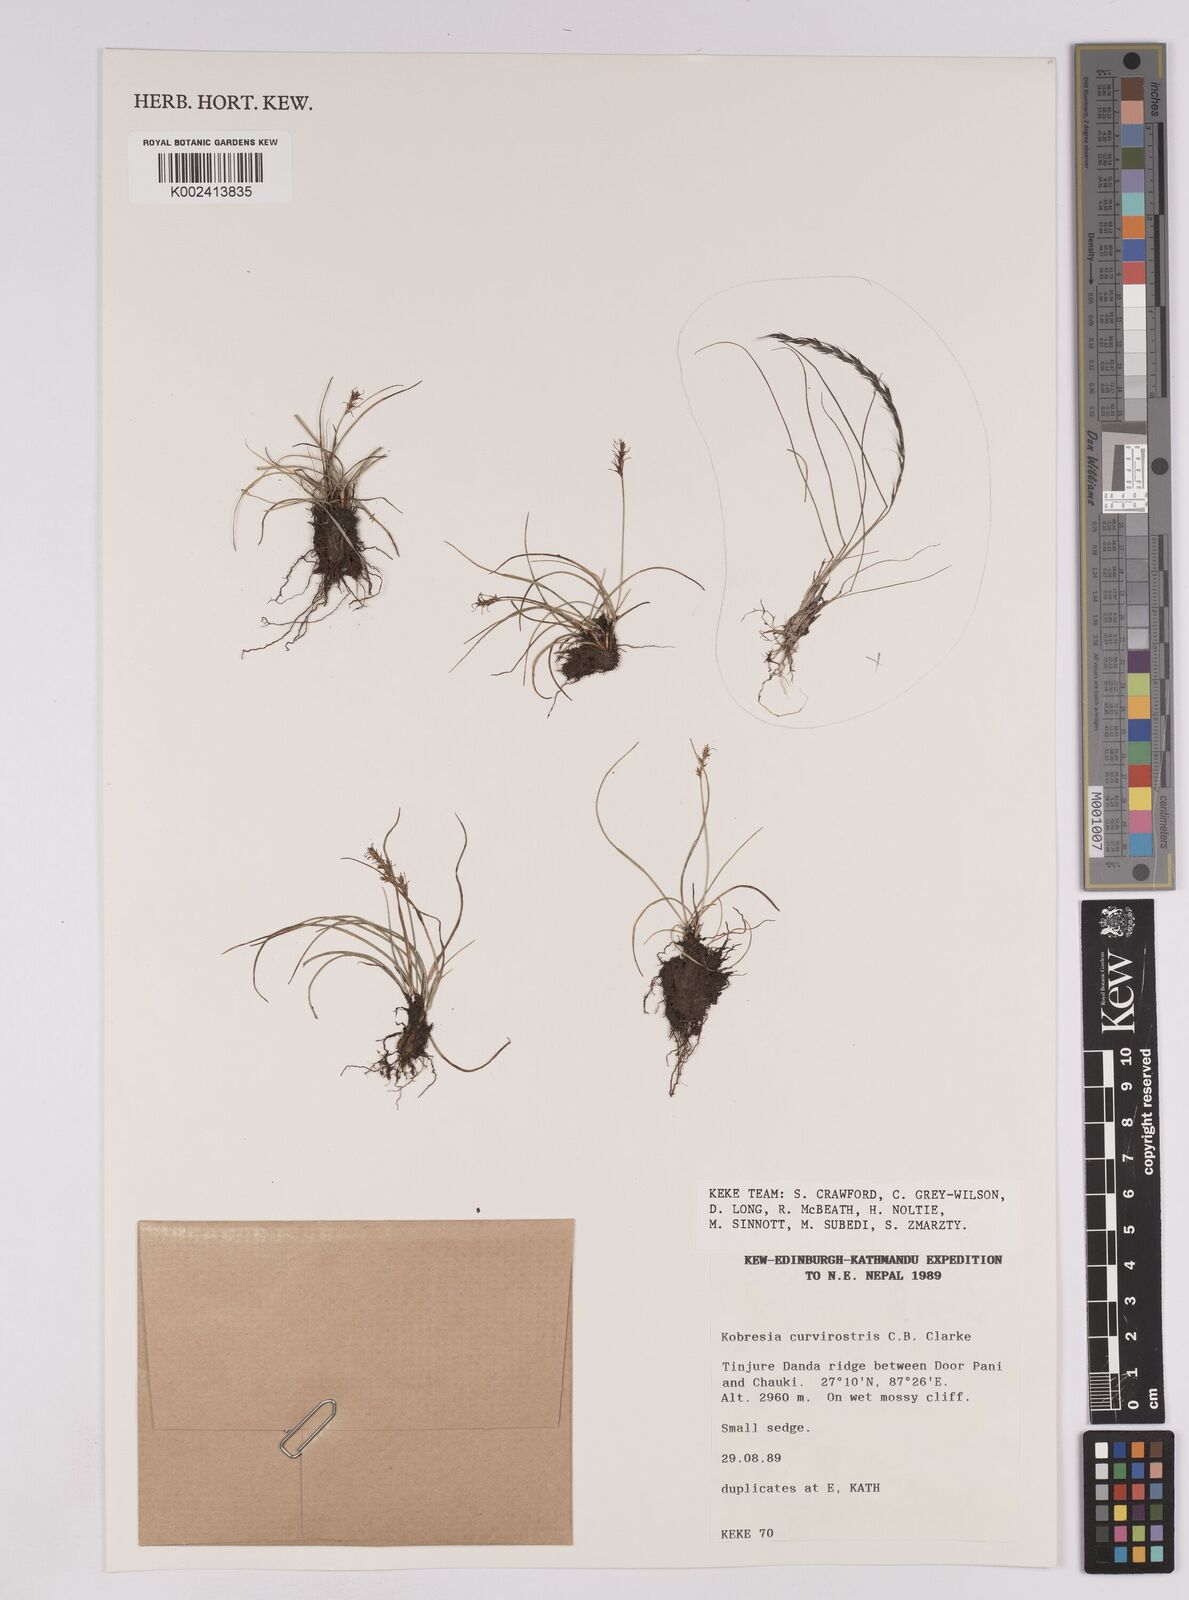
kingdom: Plantae
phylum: Tracheophyta
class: Liliopsida
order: Poales
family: Cyperaceae
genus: Carex
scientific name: Carex siamensis
